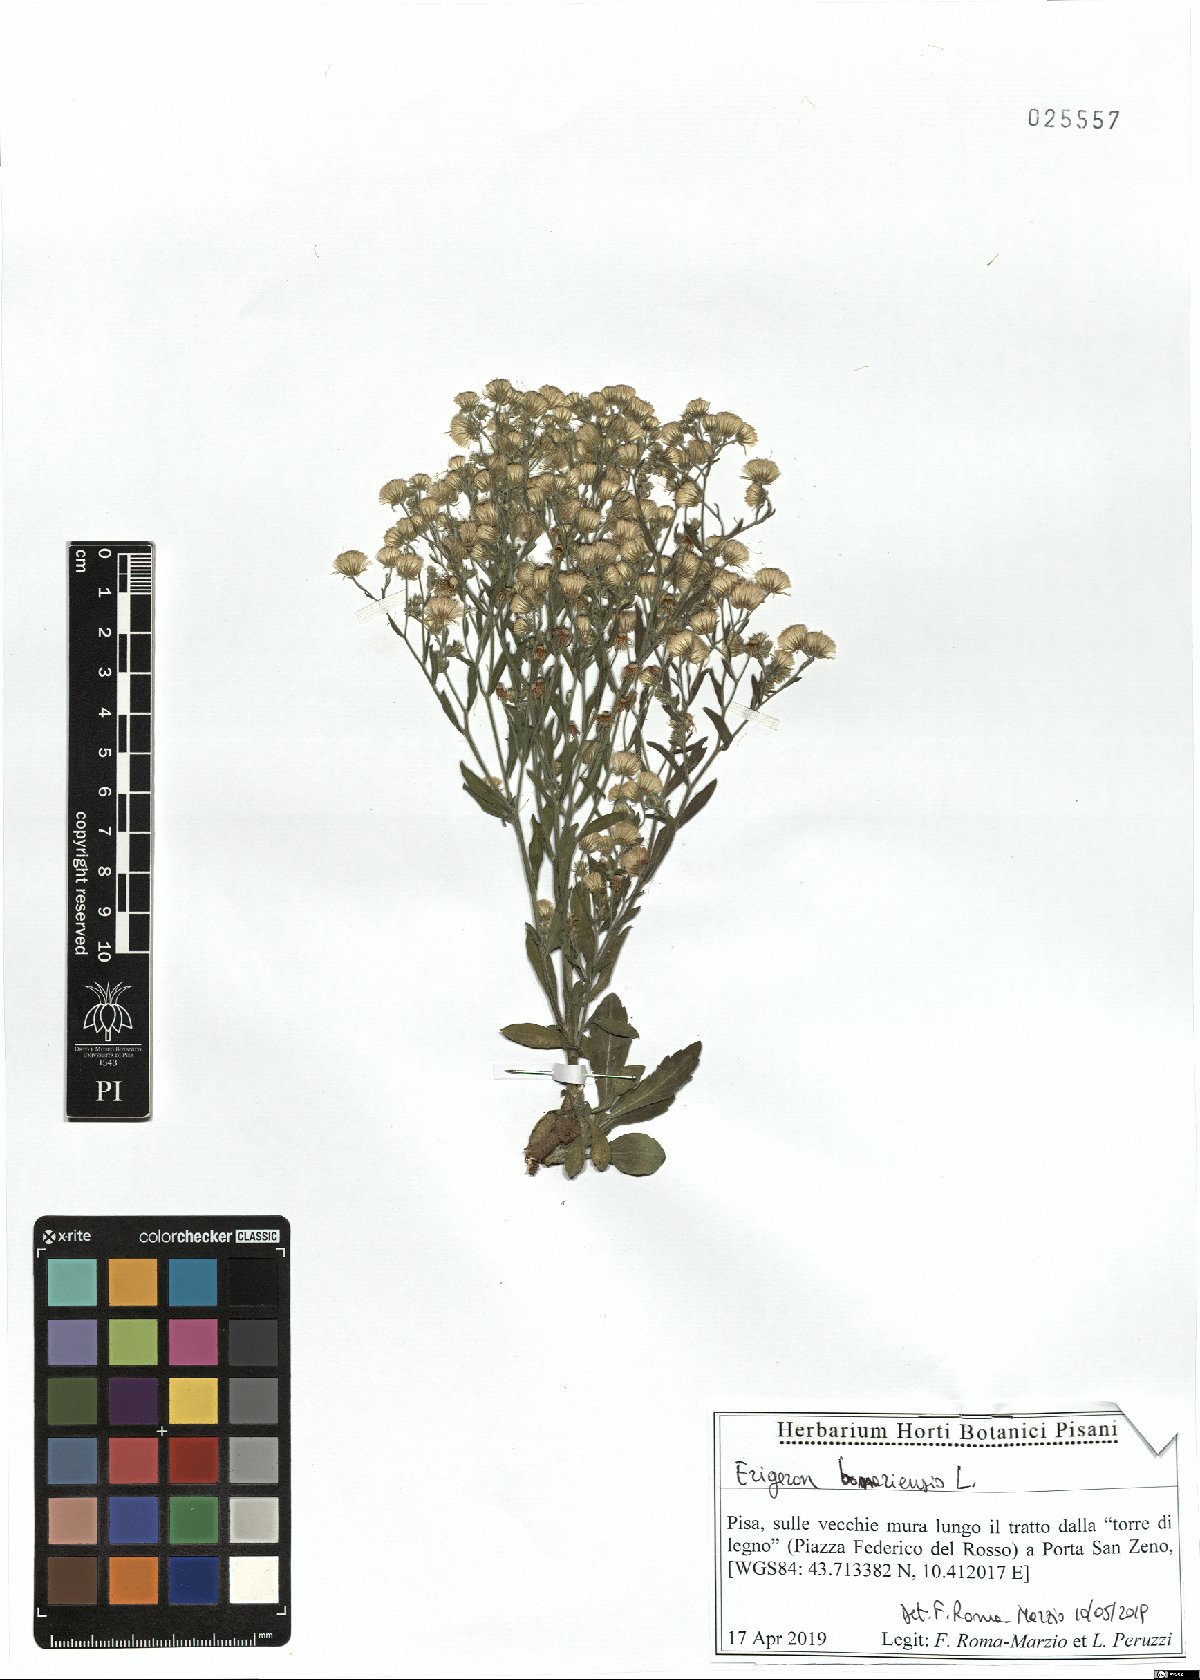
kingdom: Plantae
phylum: Tracheophyta
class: Magnoliopsida
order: Asterales
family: Asteraceae
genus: Erigeron
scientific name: Erigeron bonariensis
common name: Argentine fleabane
